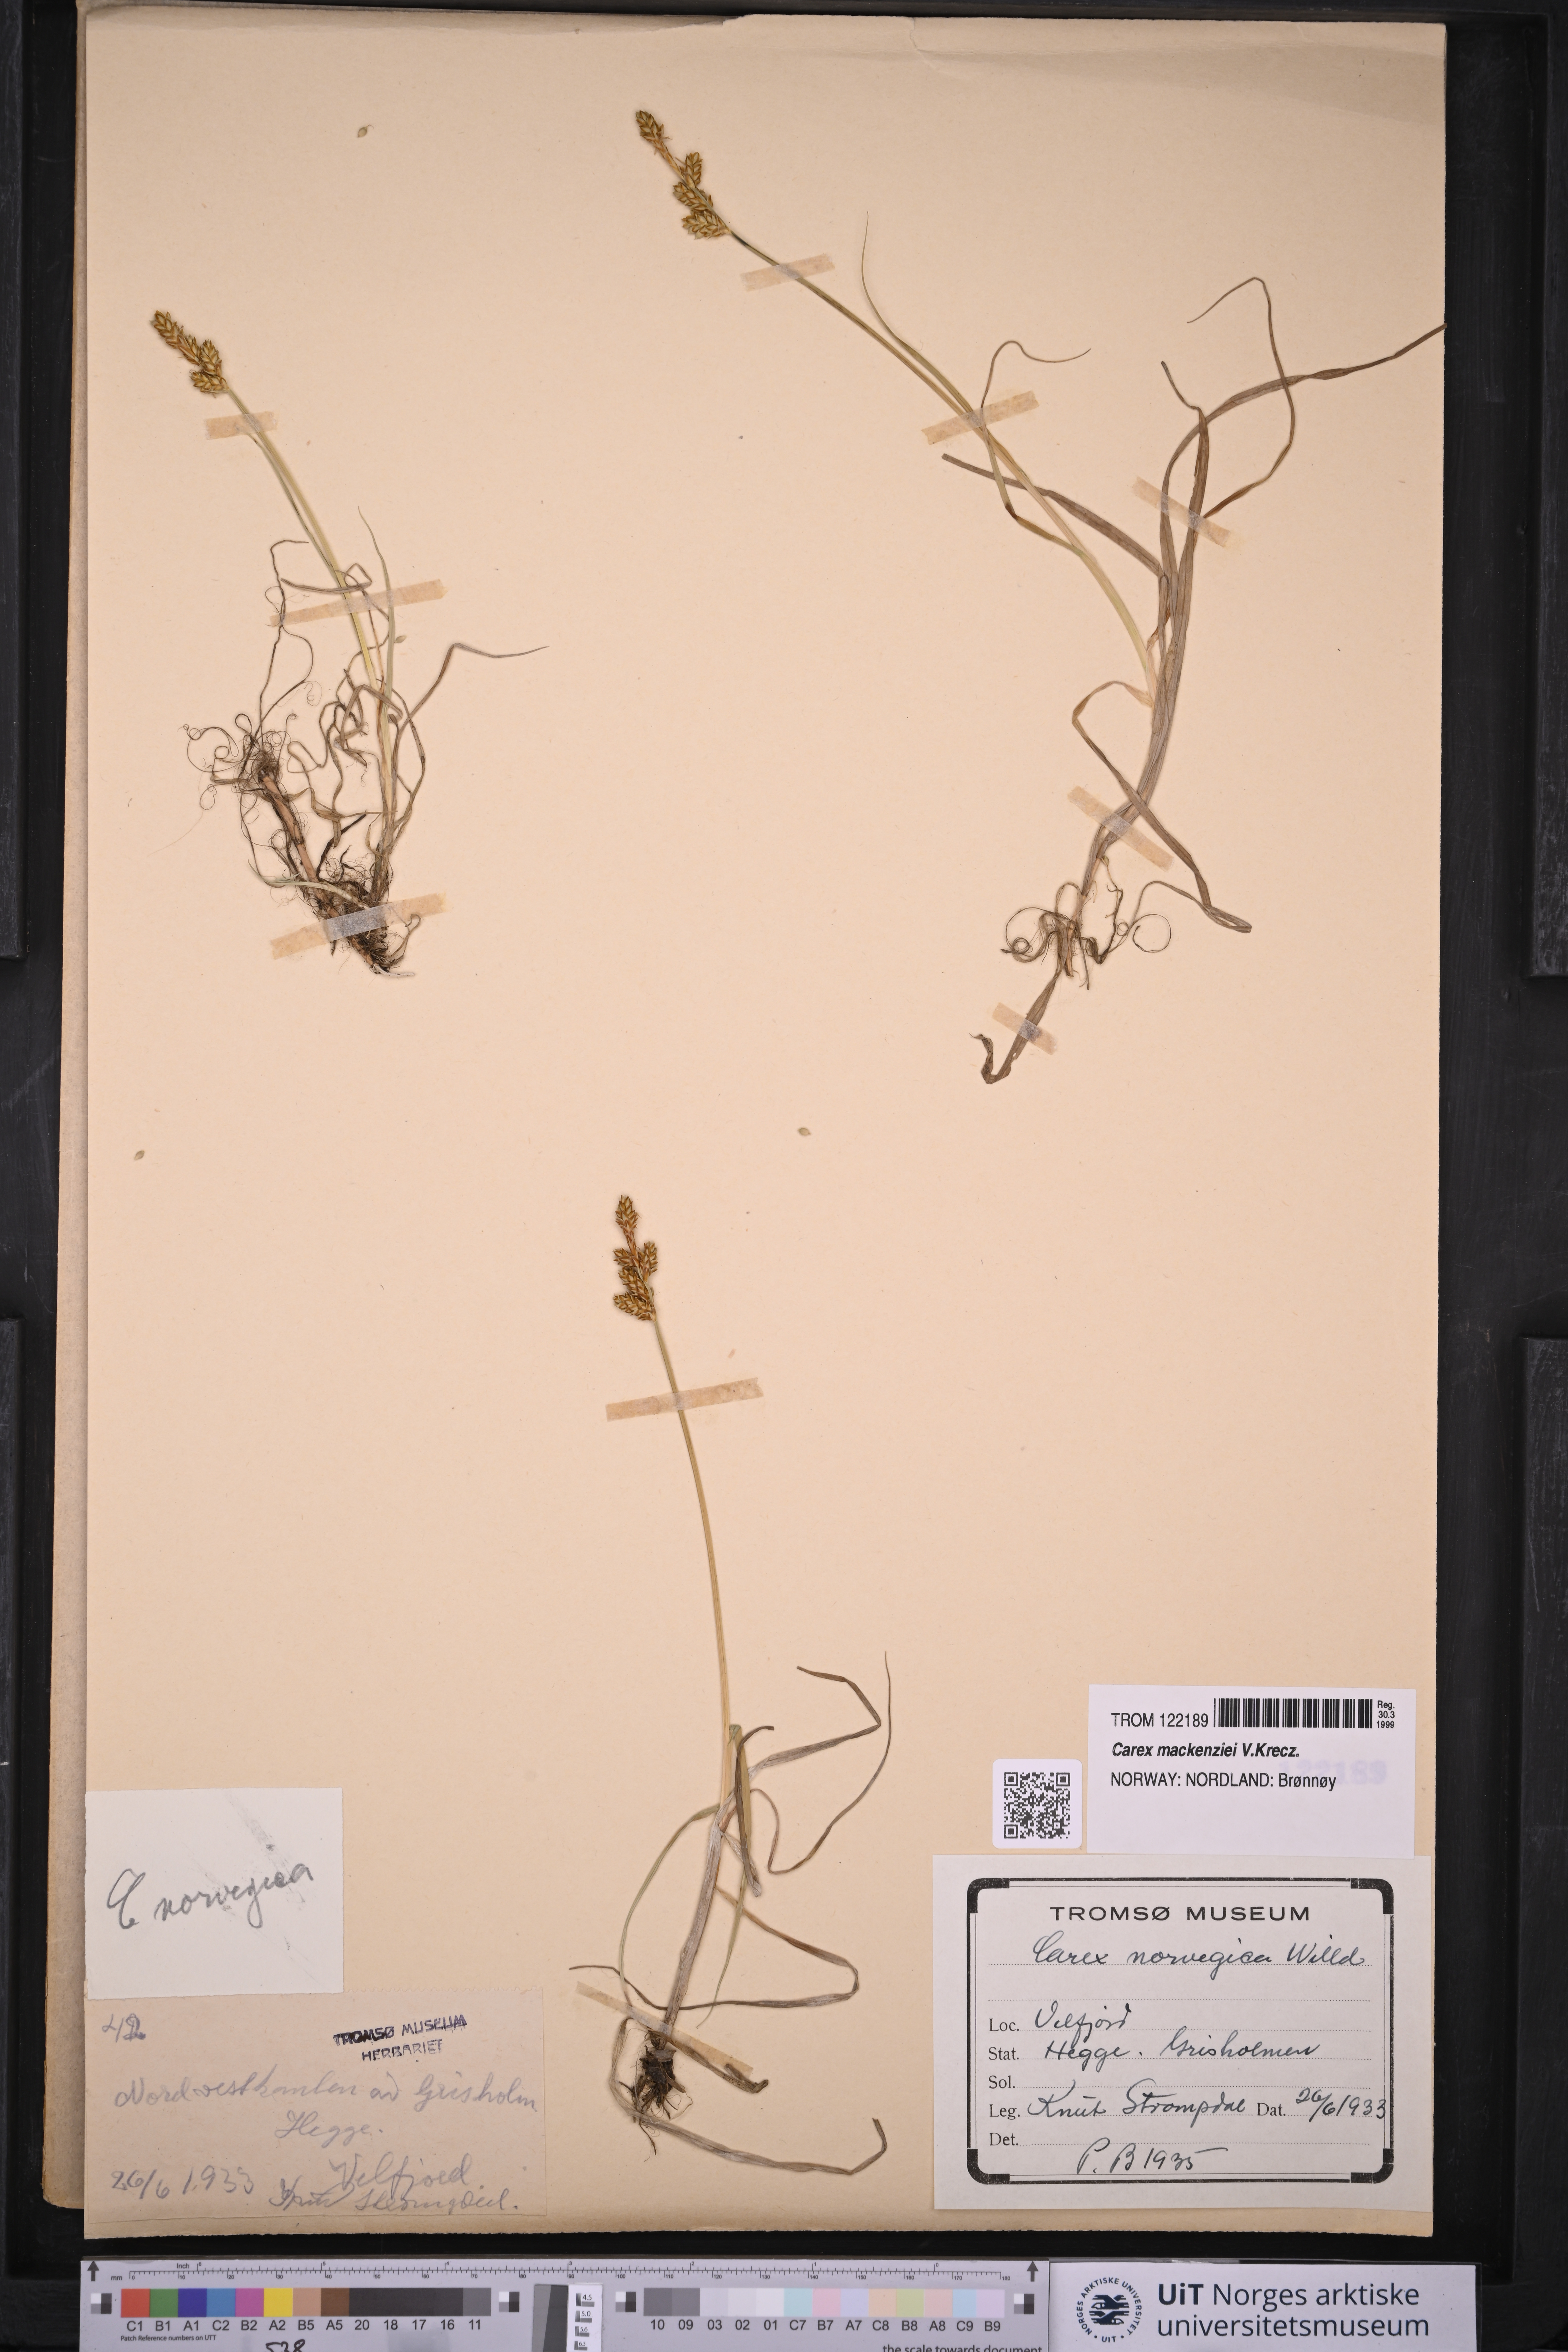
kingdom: Plantae
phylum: Tracheophyta
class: Liliopsida
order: Poales
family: Cyperaceae
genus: Carex
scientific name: Carex mackenziei
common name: Mackenzie's sedge
